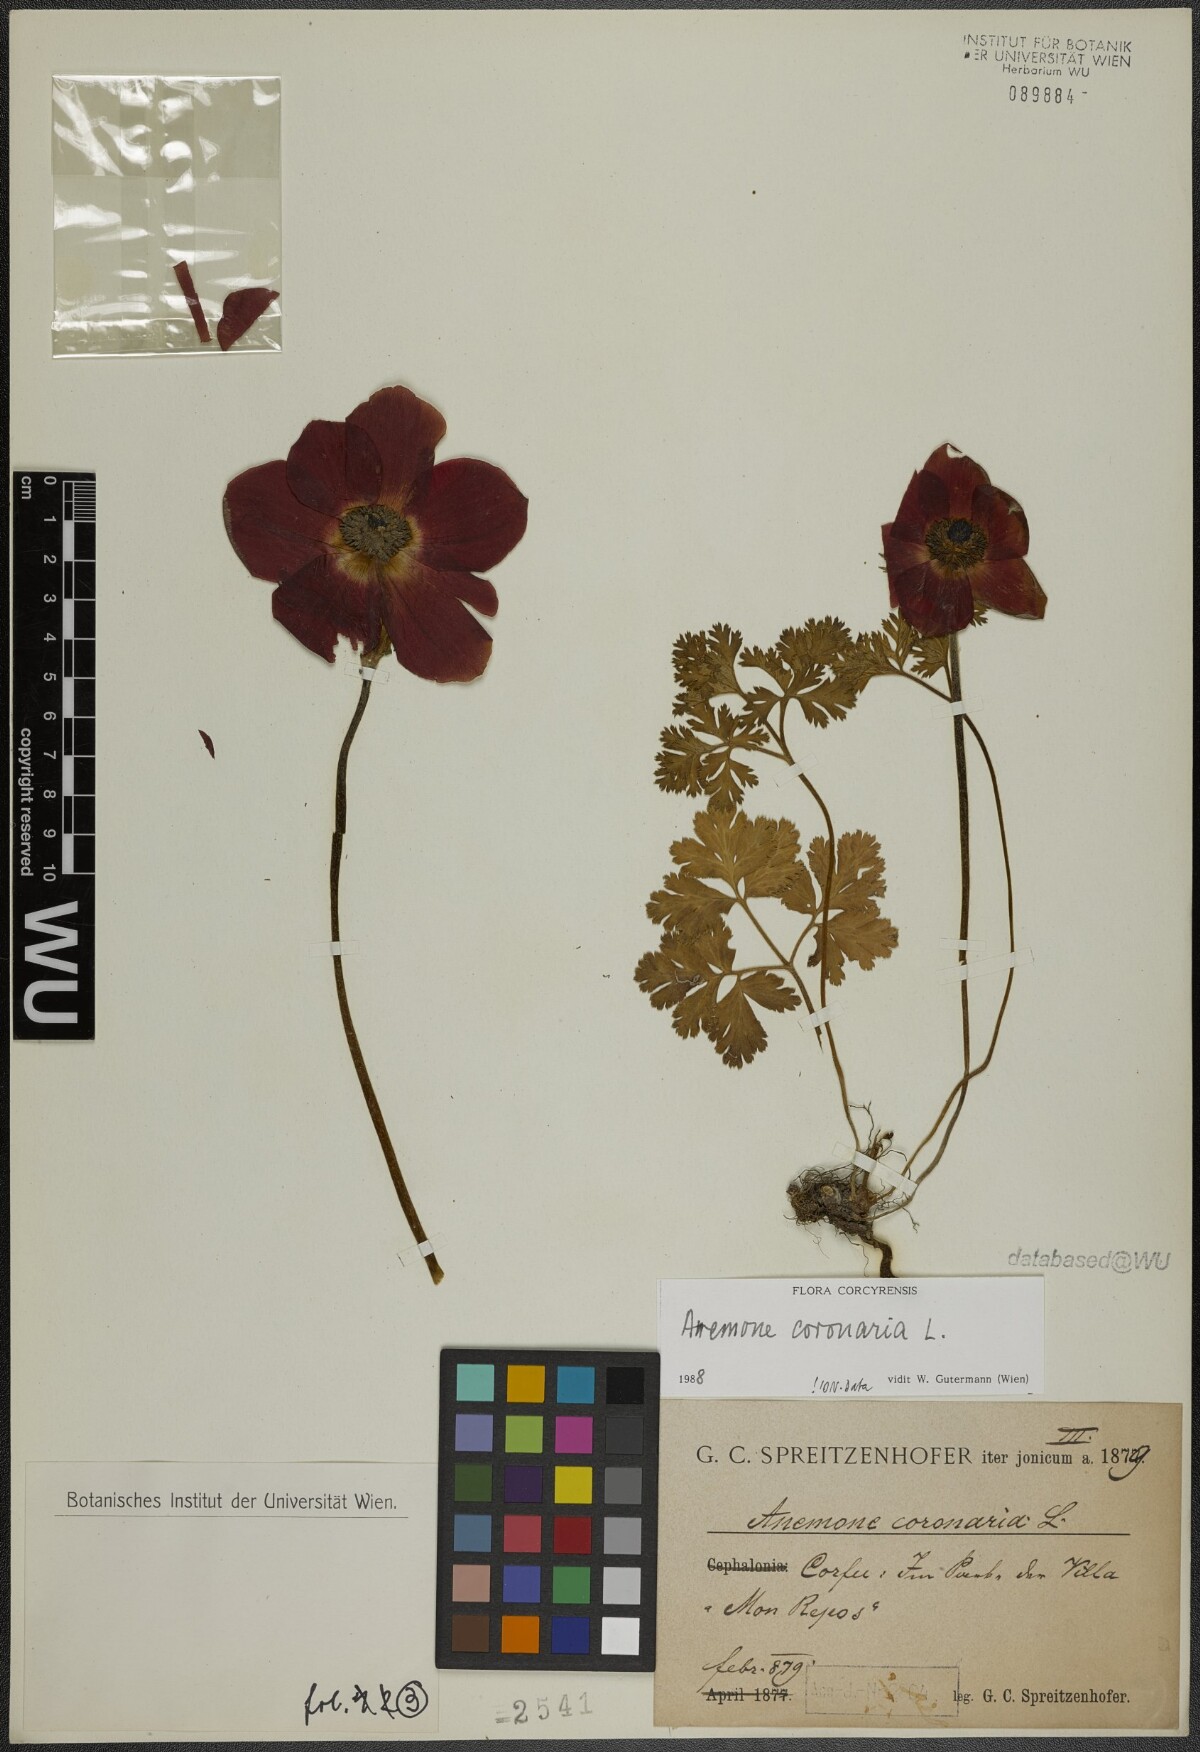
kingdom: Plantae
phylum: Tracheophyta
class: Magnoliopsida
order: Ranunculales
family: Ranunculaceae
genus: Anemone
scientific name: Anemone coronaria
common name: Poppy anemone
